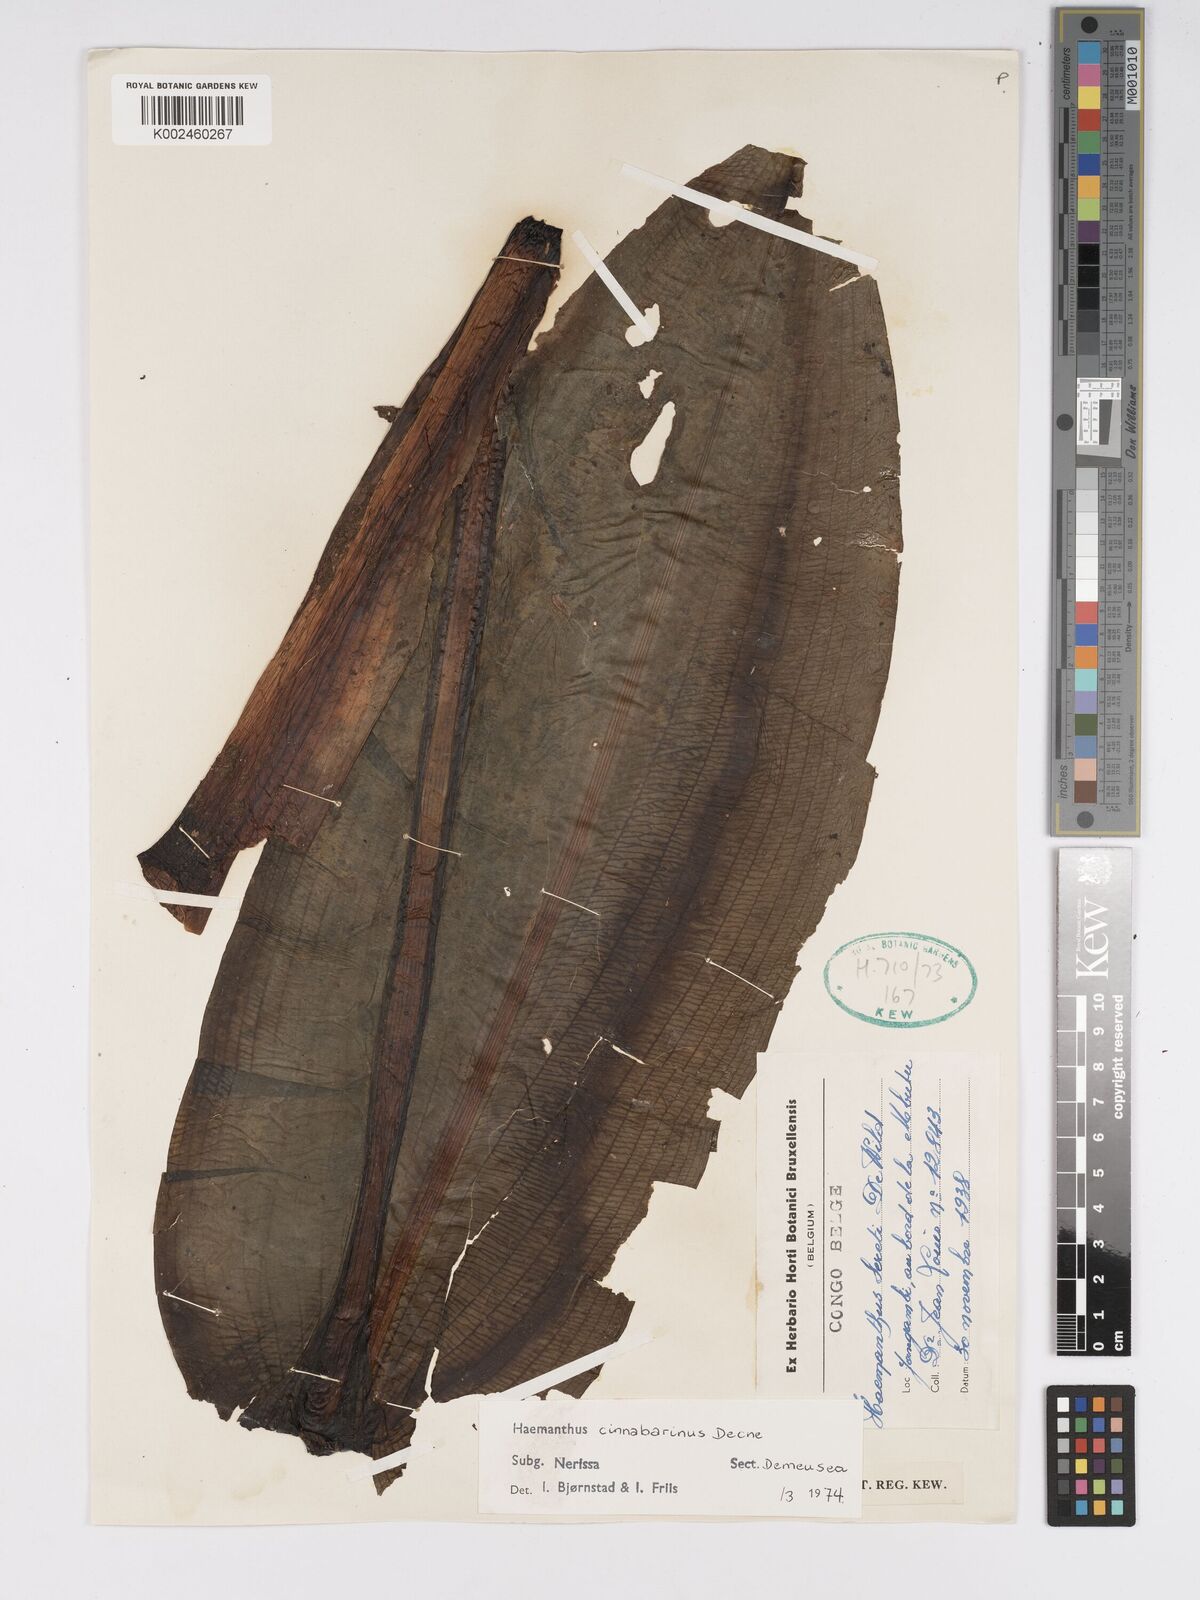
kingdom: Plantae
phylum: Tracheophyta
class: Liliopsida
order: Asparagales
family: Amaryllidaceae
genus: Scadoxus
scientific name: Scadoxus cinnabarinus
